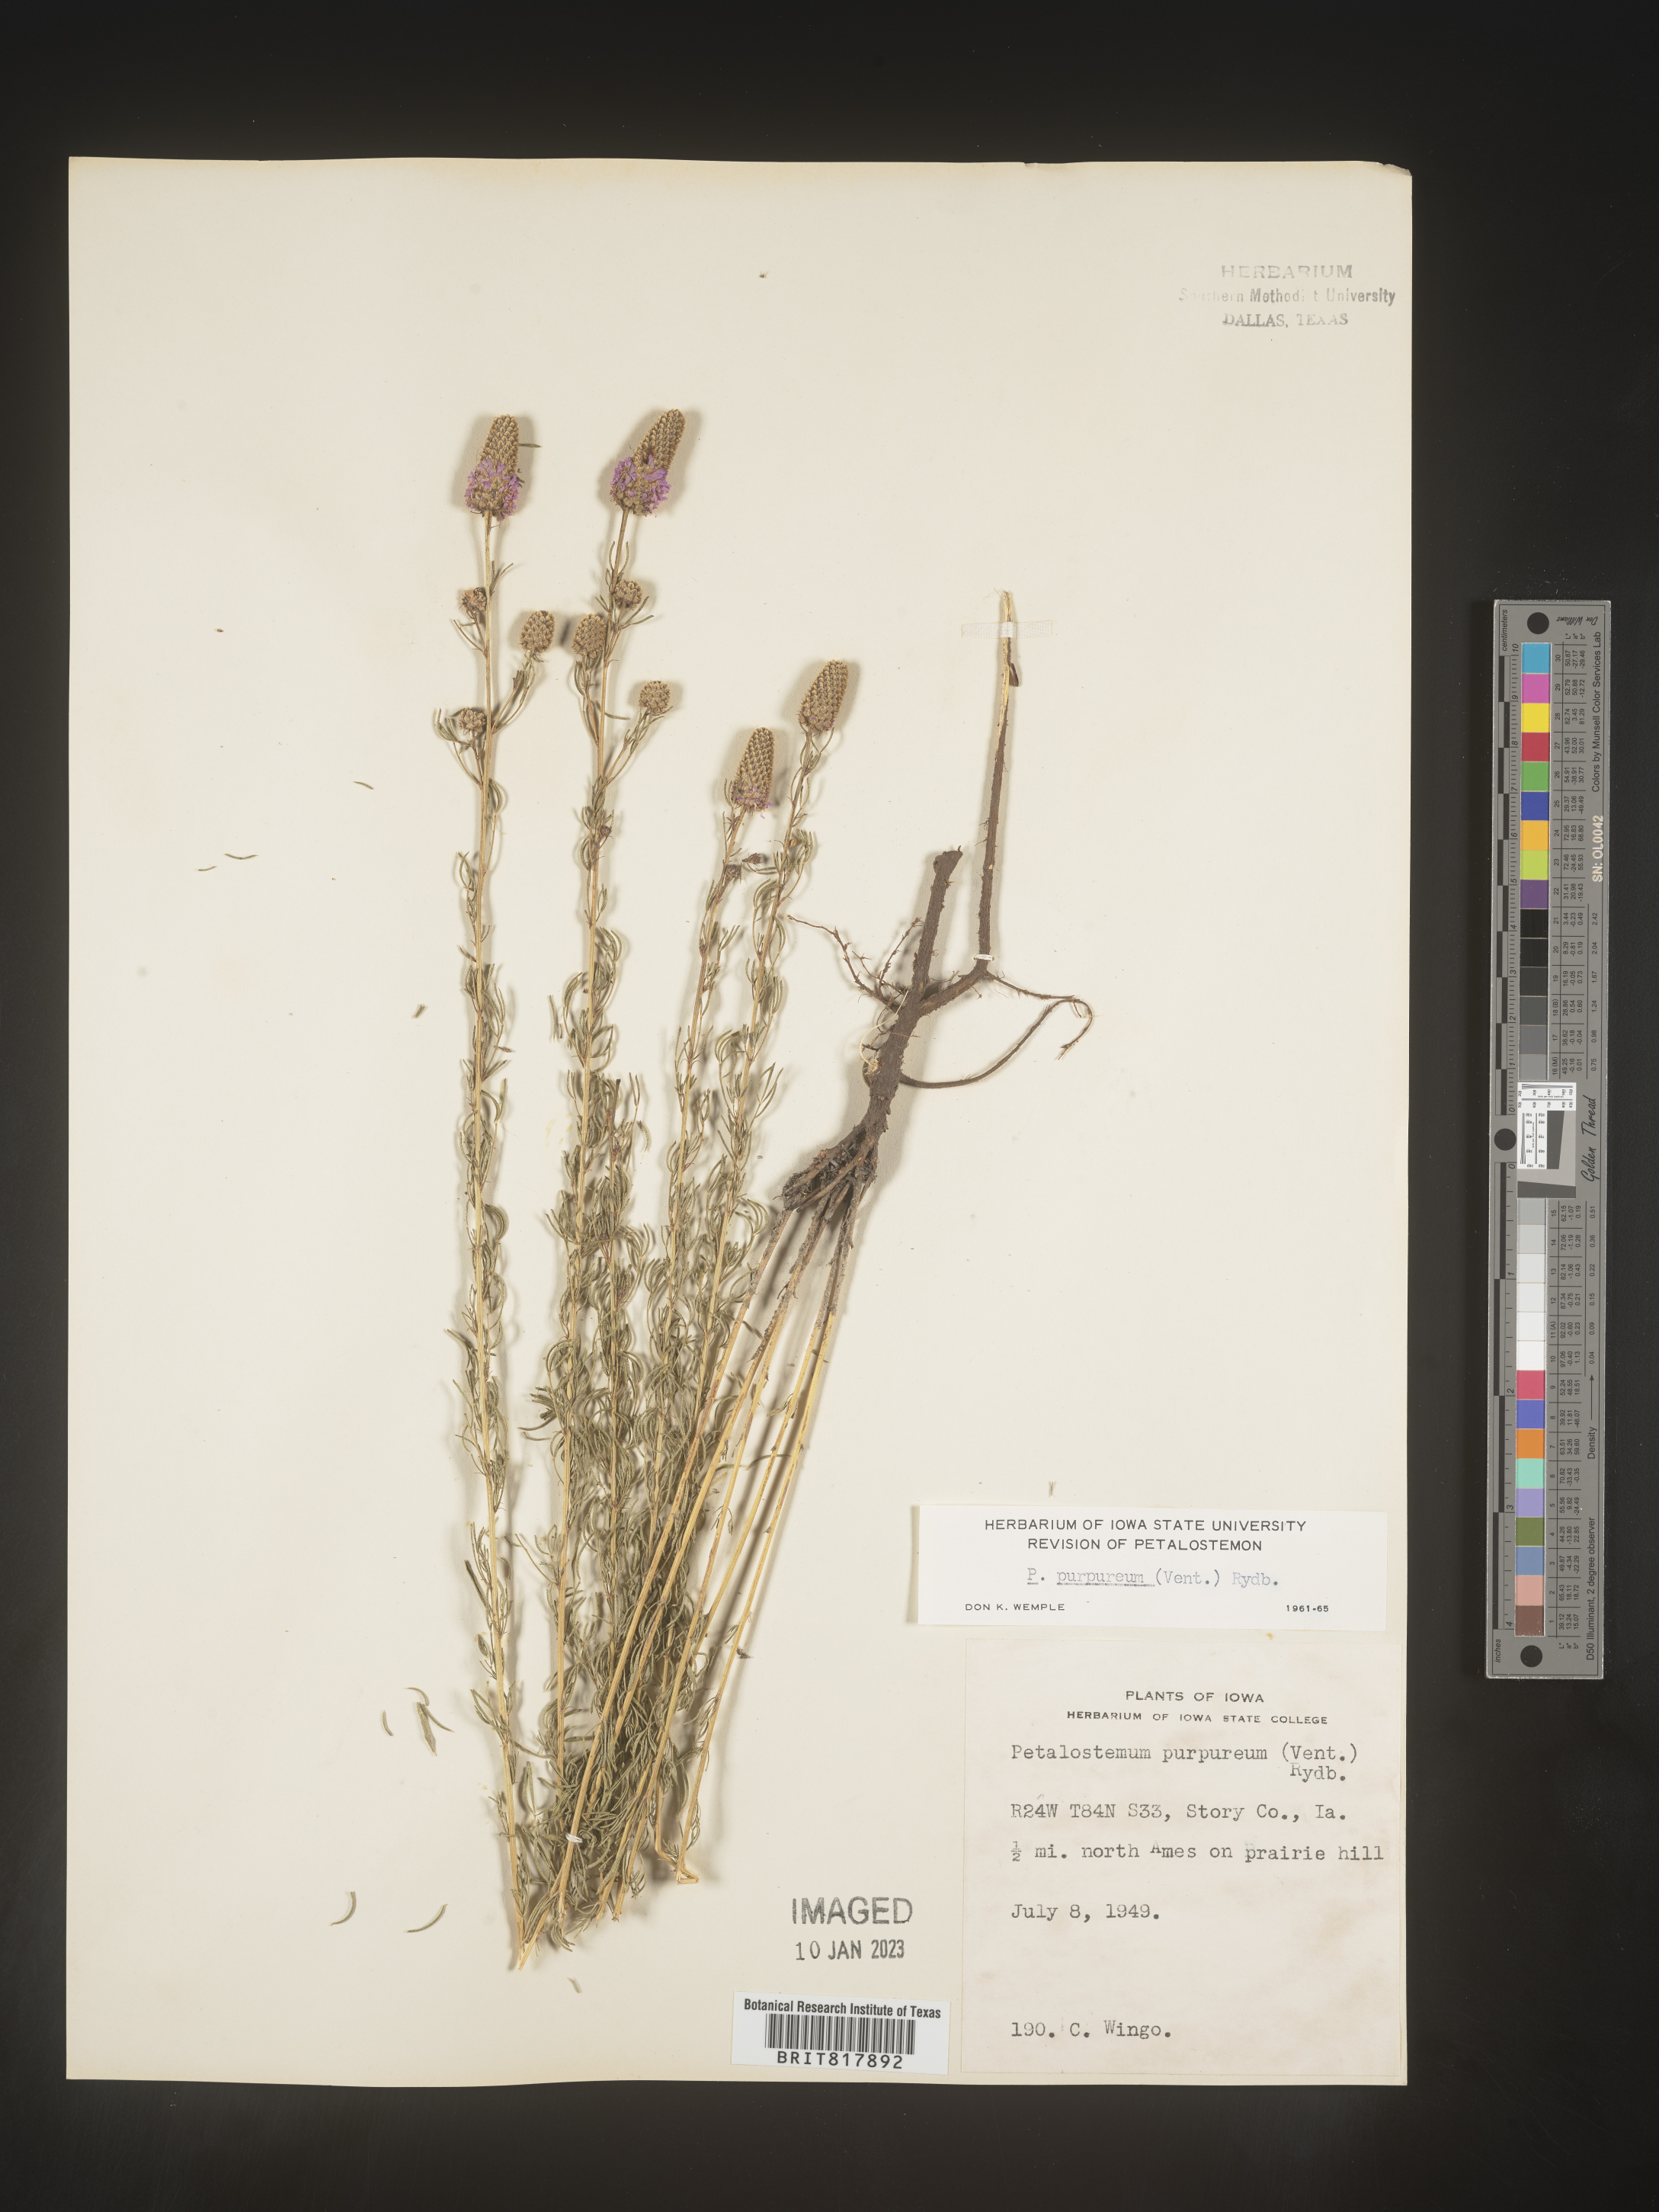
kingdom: Plantae
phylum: Tracheophyta
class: Magnoliopsida
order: Fabales
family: Fabaceae
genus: Dalea
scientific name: Dalea purpurea
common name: Purple prairie-clover
